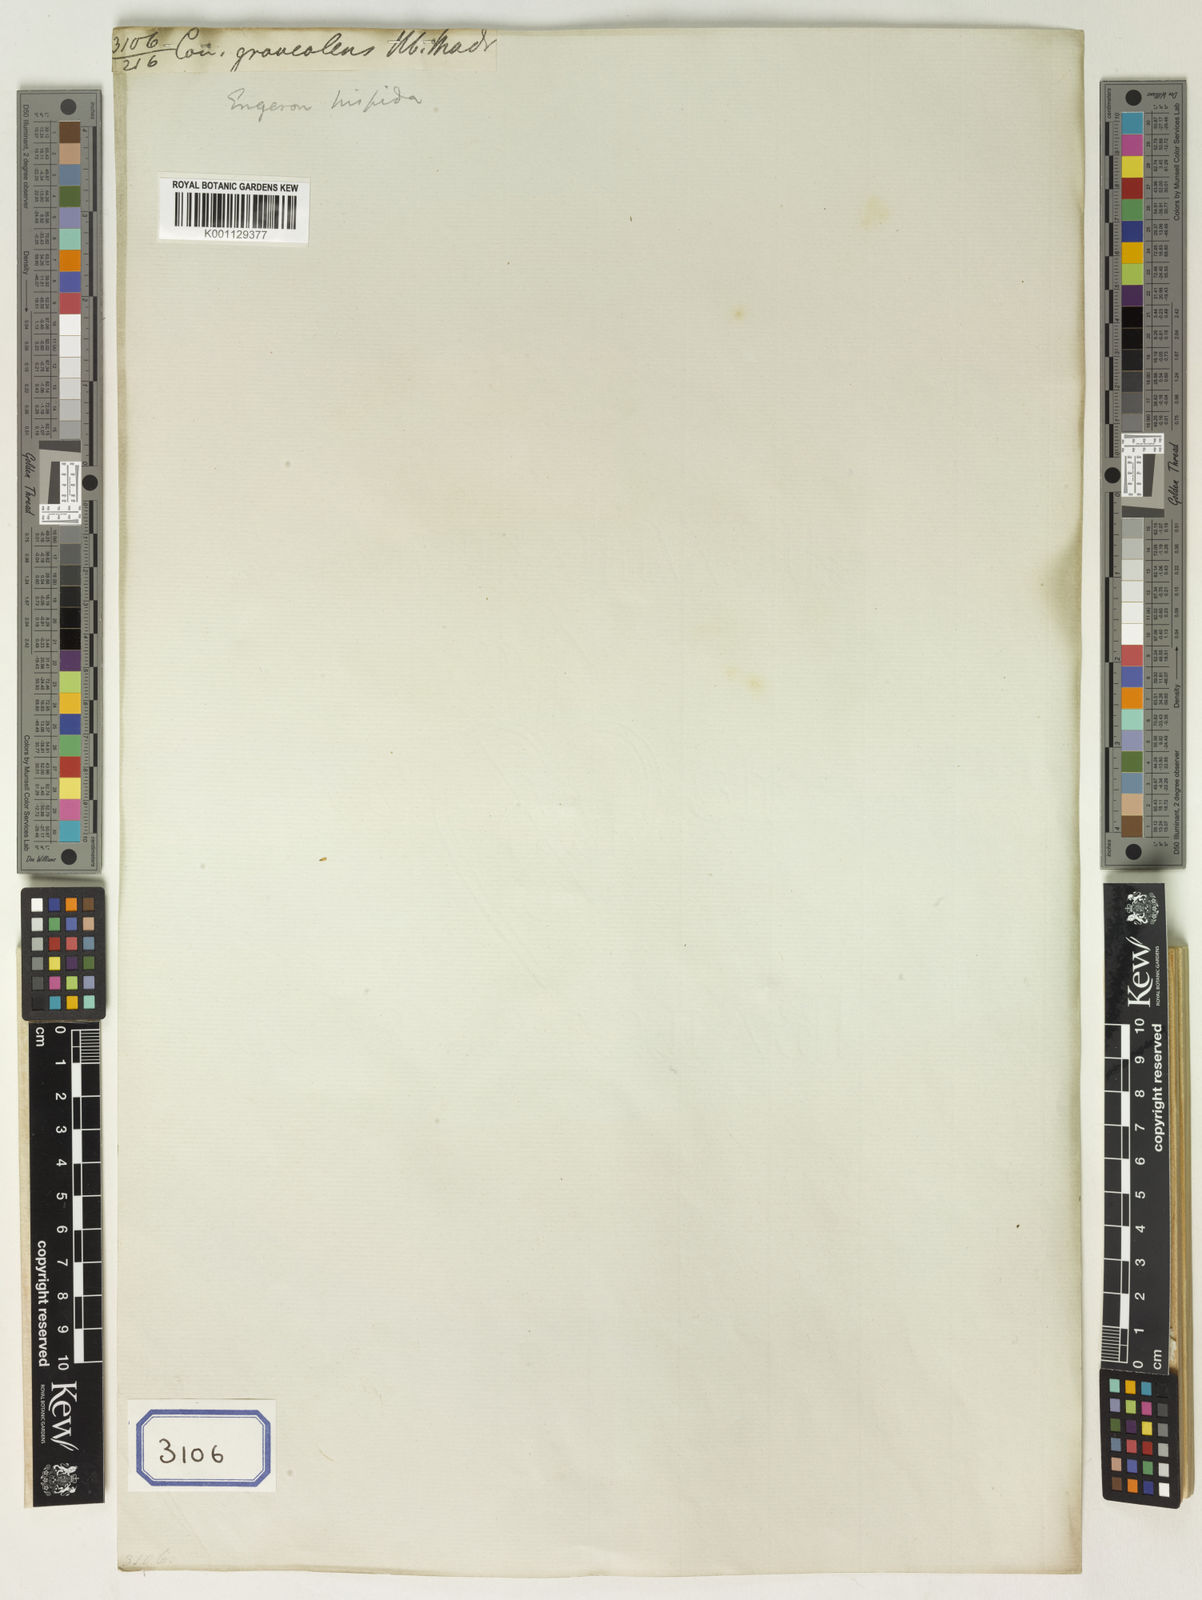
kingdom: Plantae
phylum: Tracheophyta
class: Magnoliopsida
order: Asterales
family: Asteraceae
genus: Erigeron
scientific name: Erigeron sublyratus
